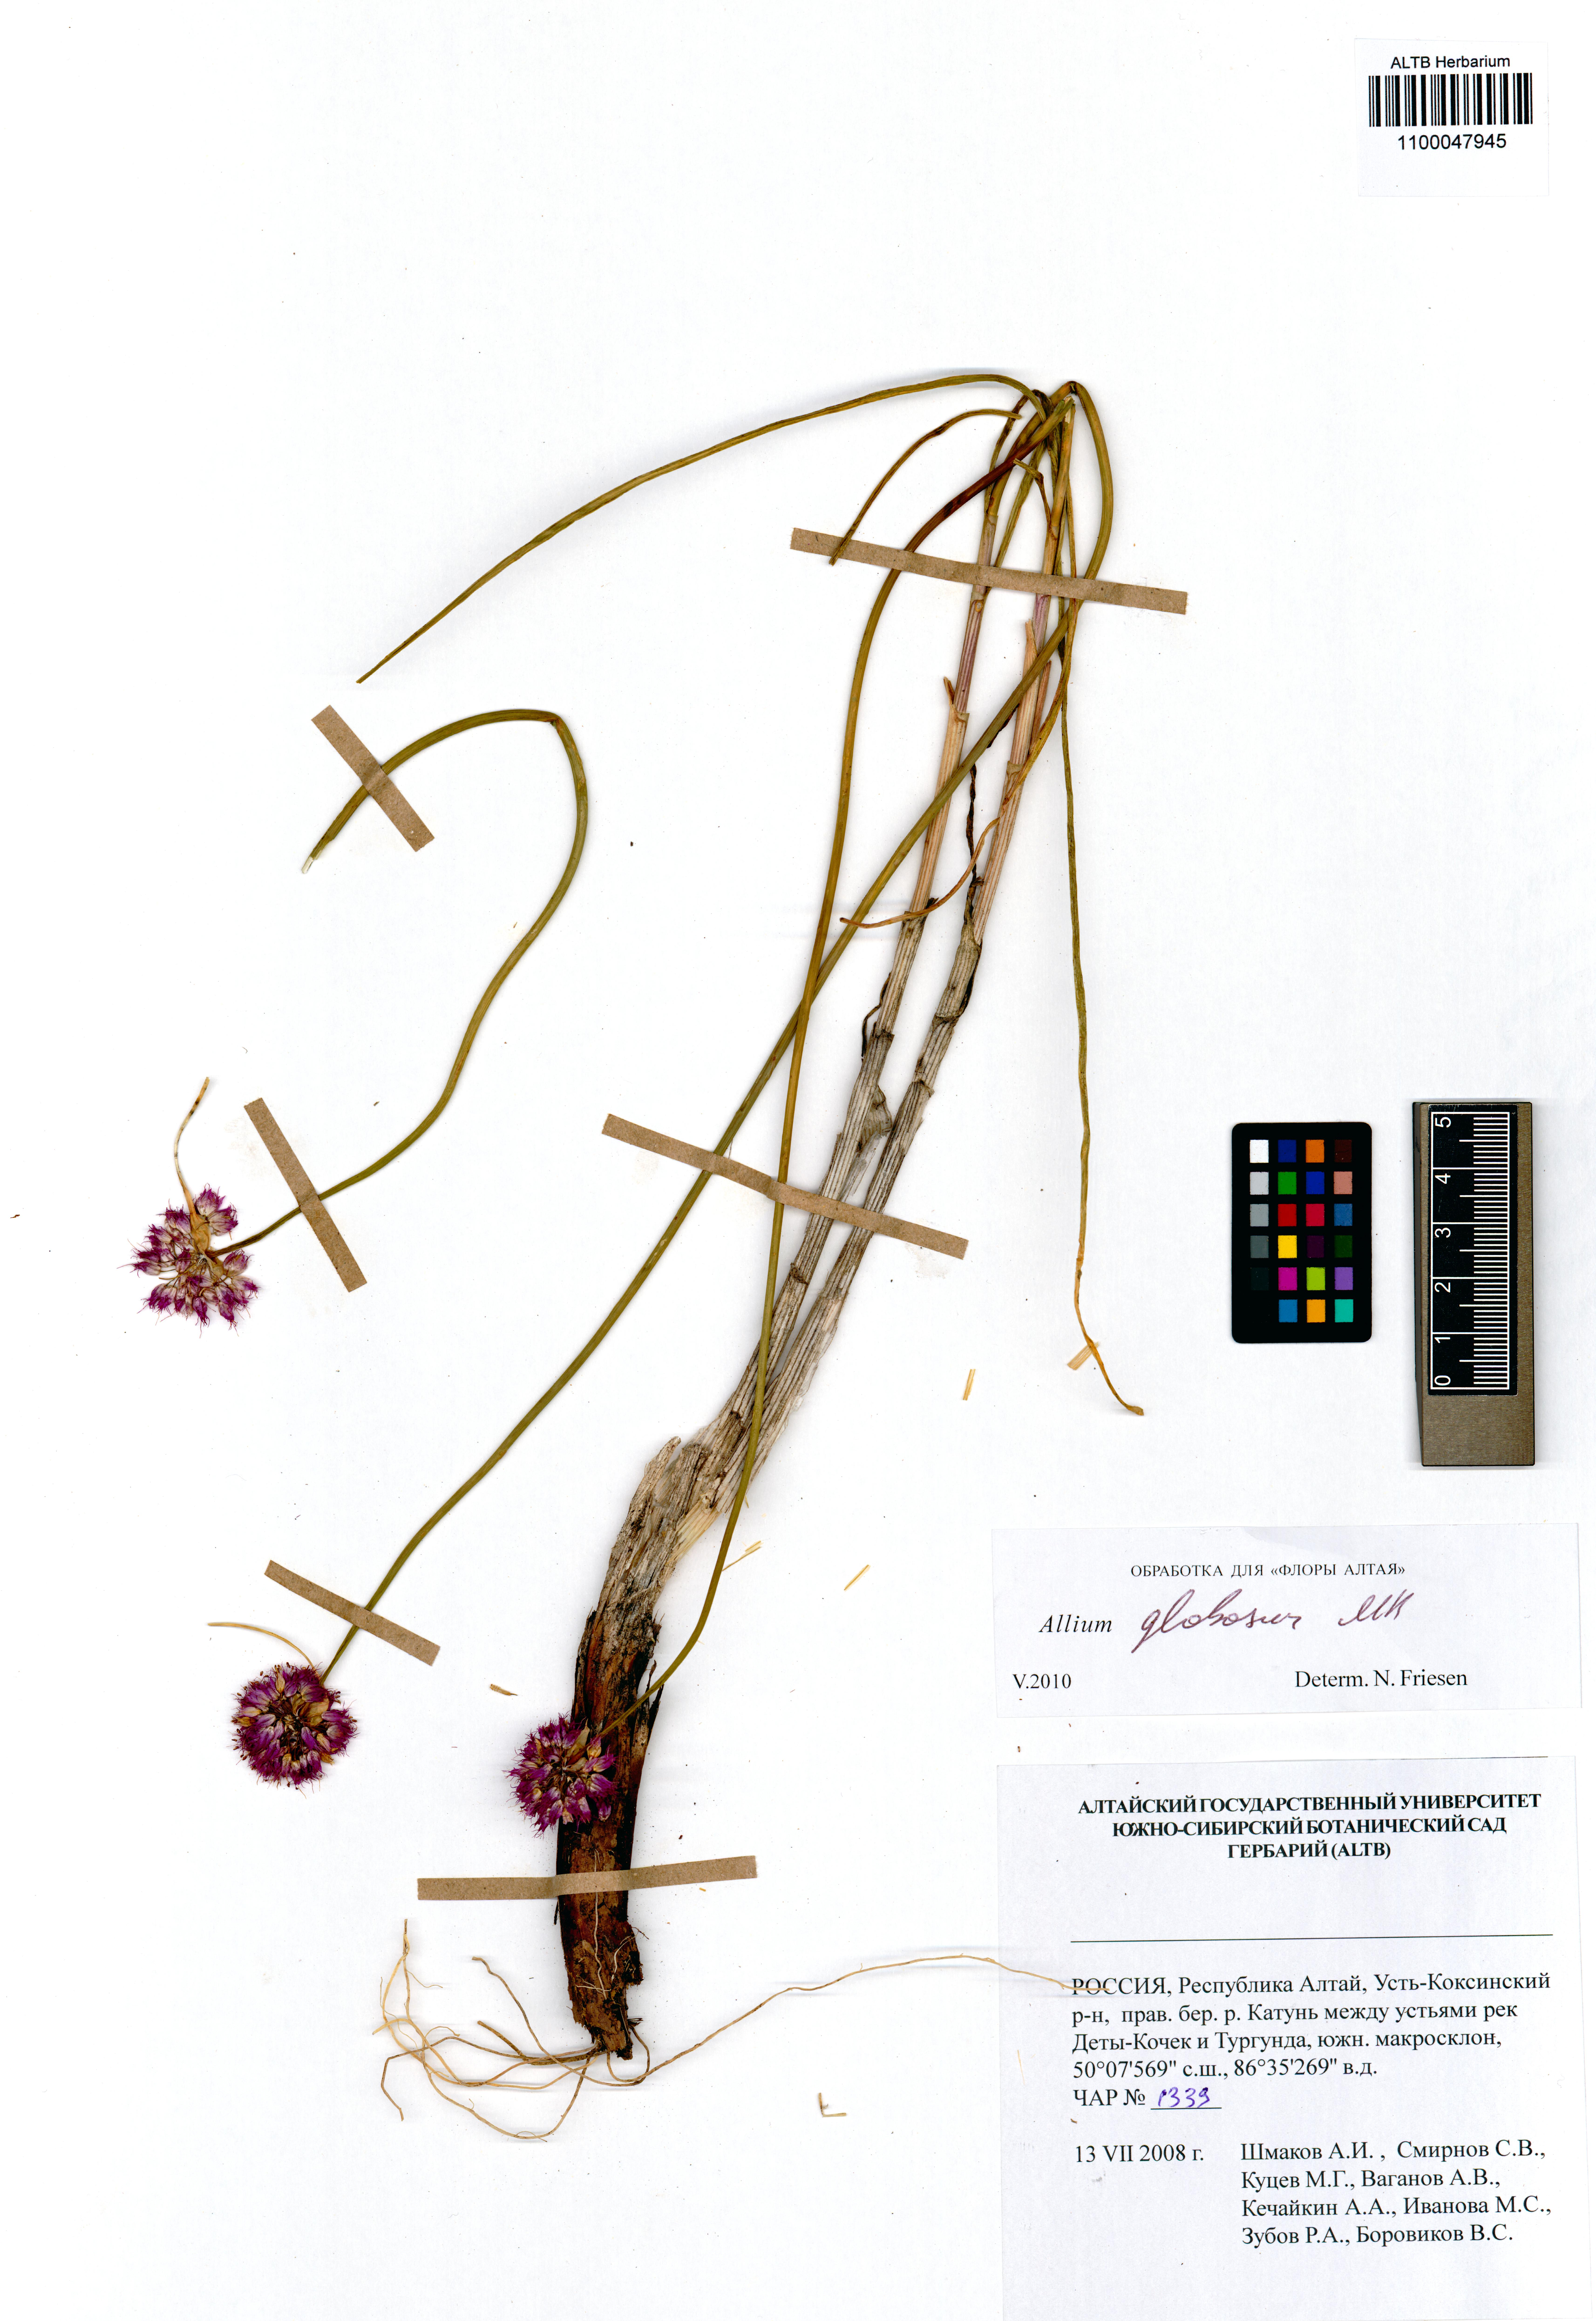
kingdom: Plantae
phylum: Tracheophyta
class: Liliopsida
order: Asparagales
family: Amaryllidaceae
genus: Allium
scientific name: Allium saxatile
